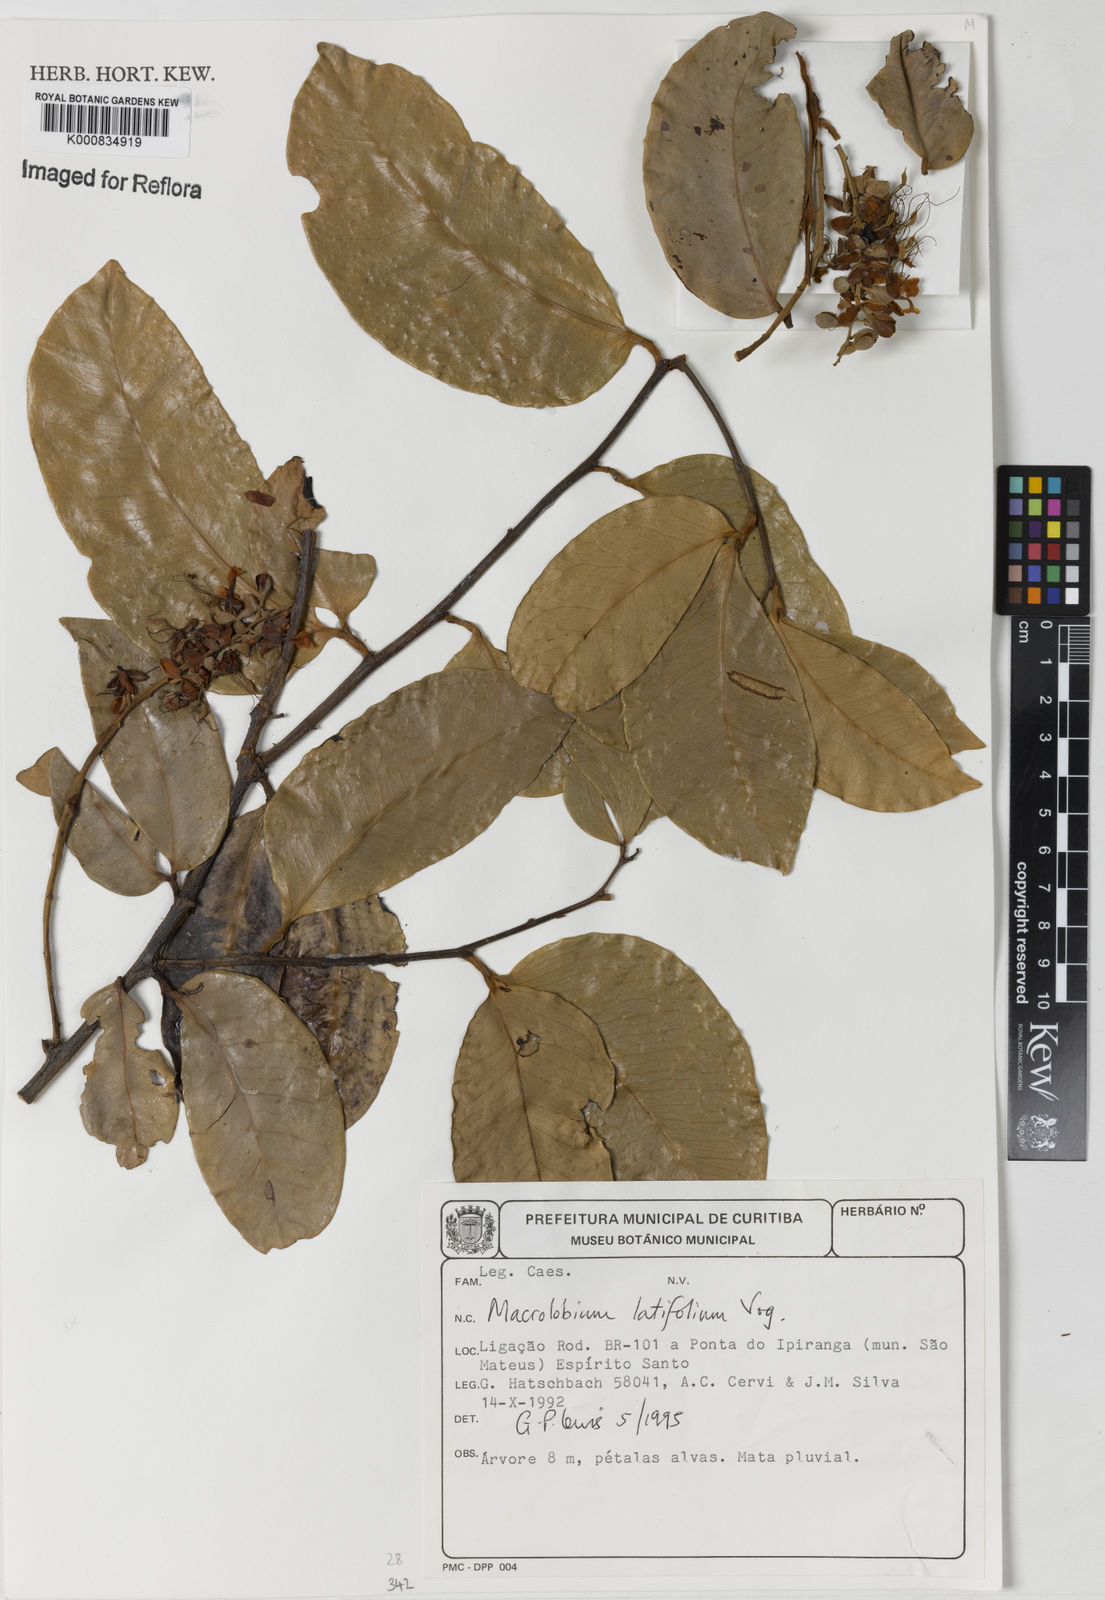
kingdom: Plantae
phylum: Tracheophyta
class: Magnoliopsida
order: Fabales
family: Fabaceae
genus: Macrolobium
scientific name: Macrolobium latifolium
